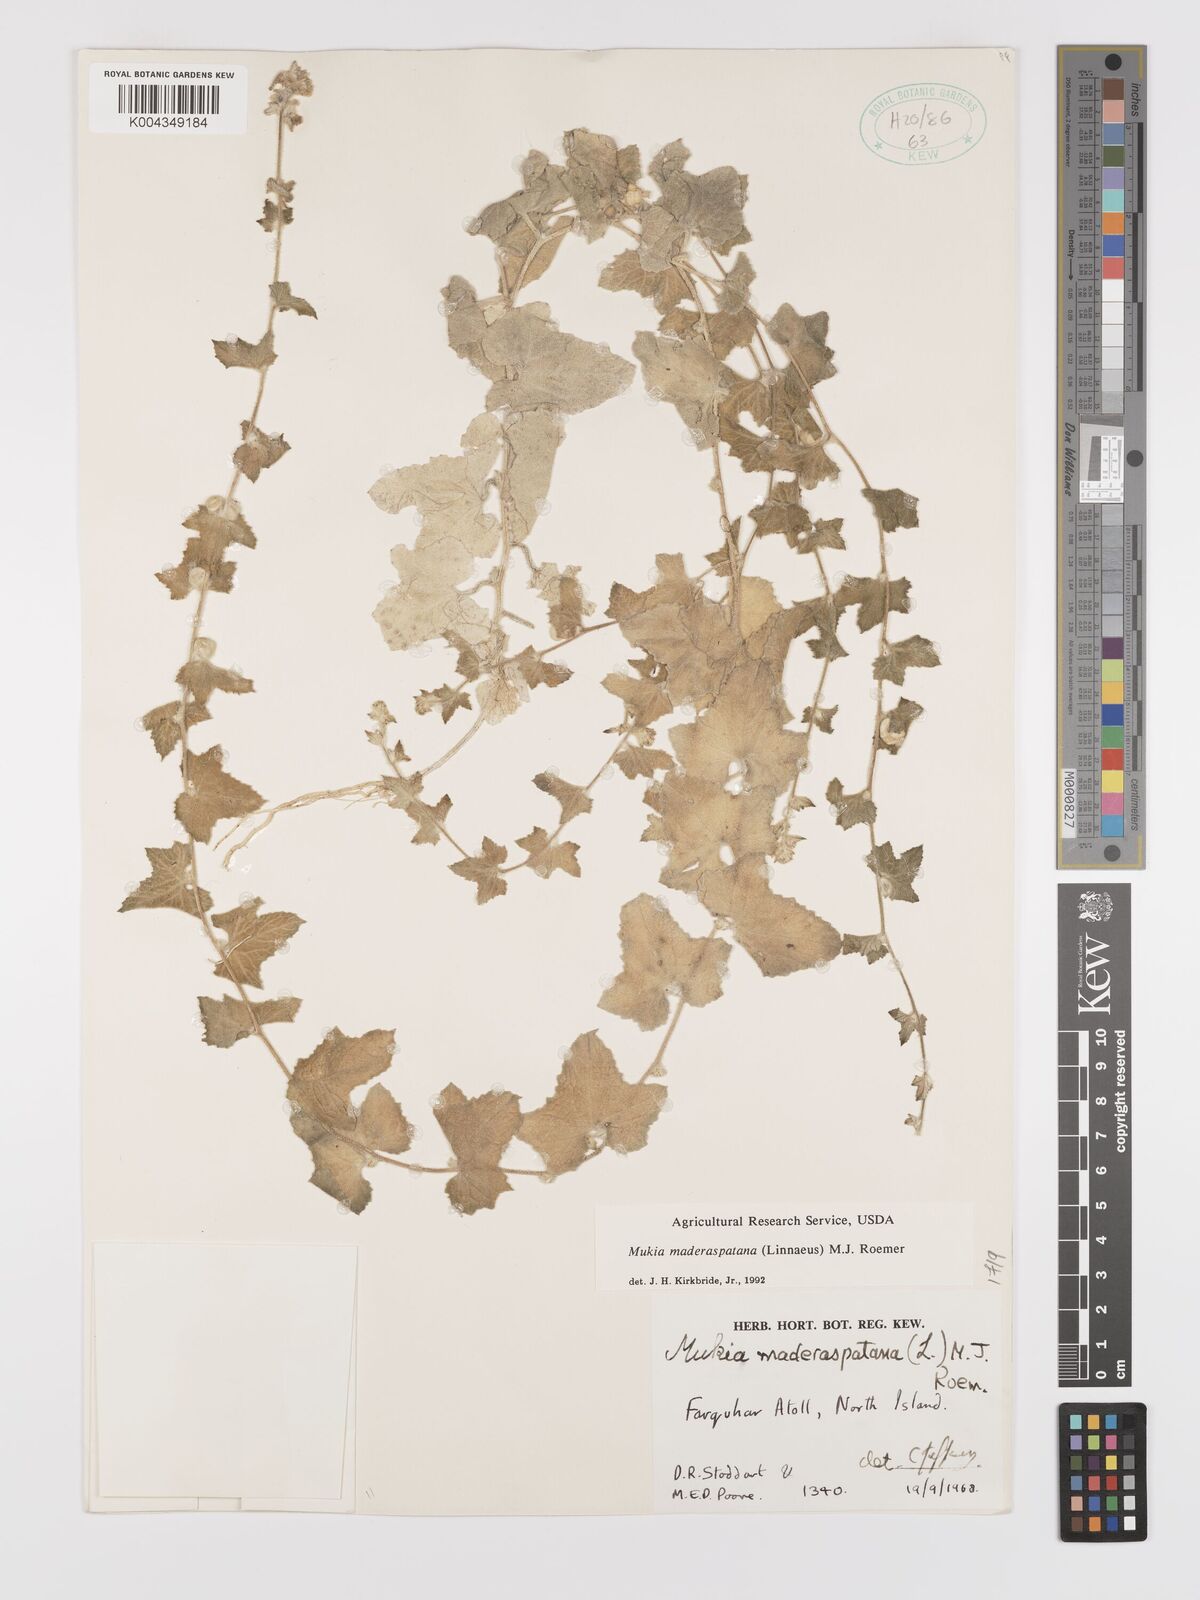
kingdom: Plantae
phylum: Tracheophyta
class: Magnoliopsida
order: Cucurbitales
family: Cucurbitaceae
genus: Cucumis
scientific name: Cucumis maderaspatanus
